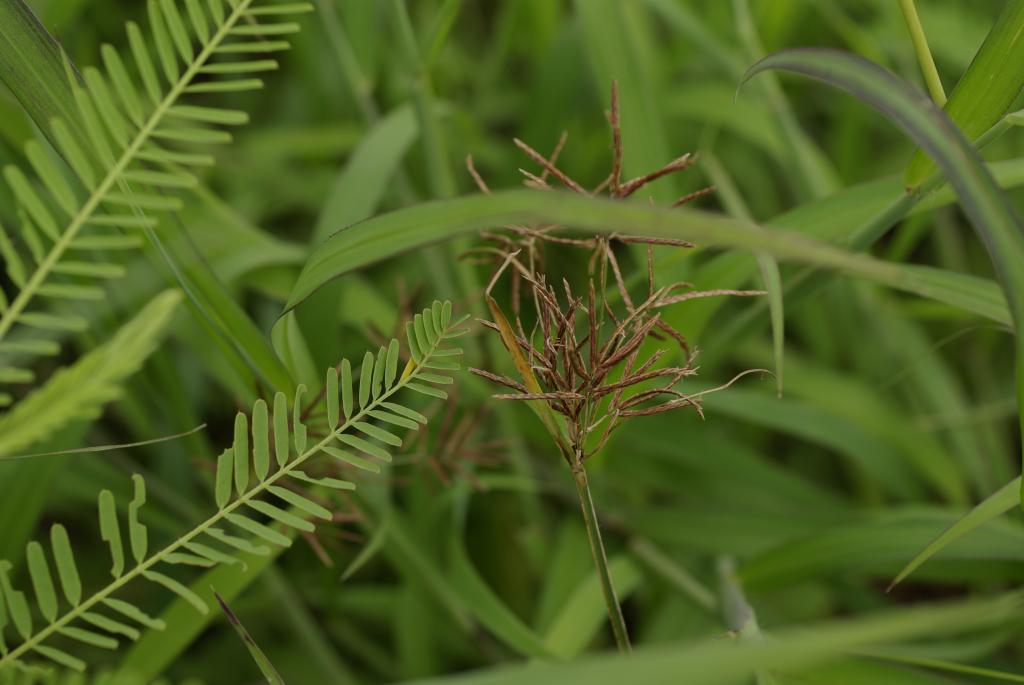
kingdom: Plantae
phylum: Tracheophyta
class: Liliopsida
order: Poales
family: Cyperaceae
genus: Cyperus
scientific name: Cyperus rotundus
